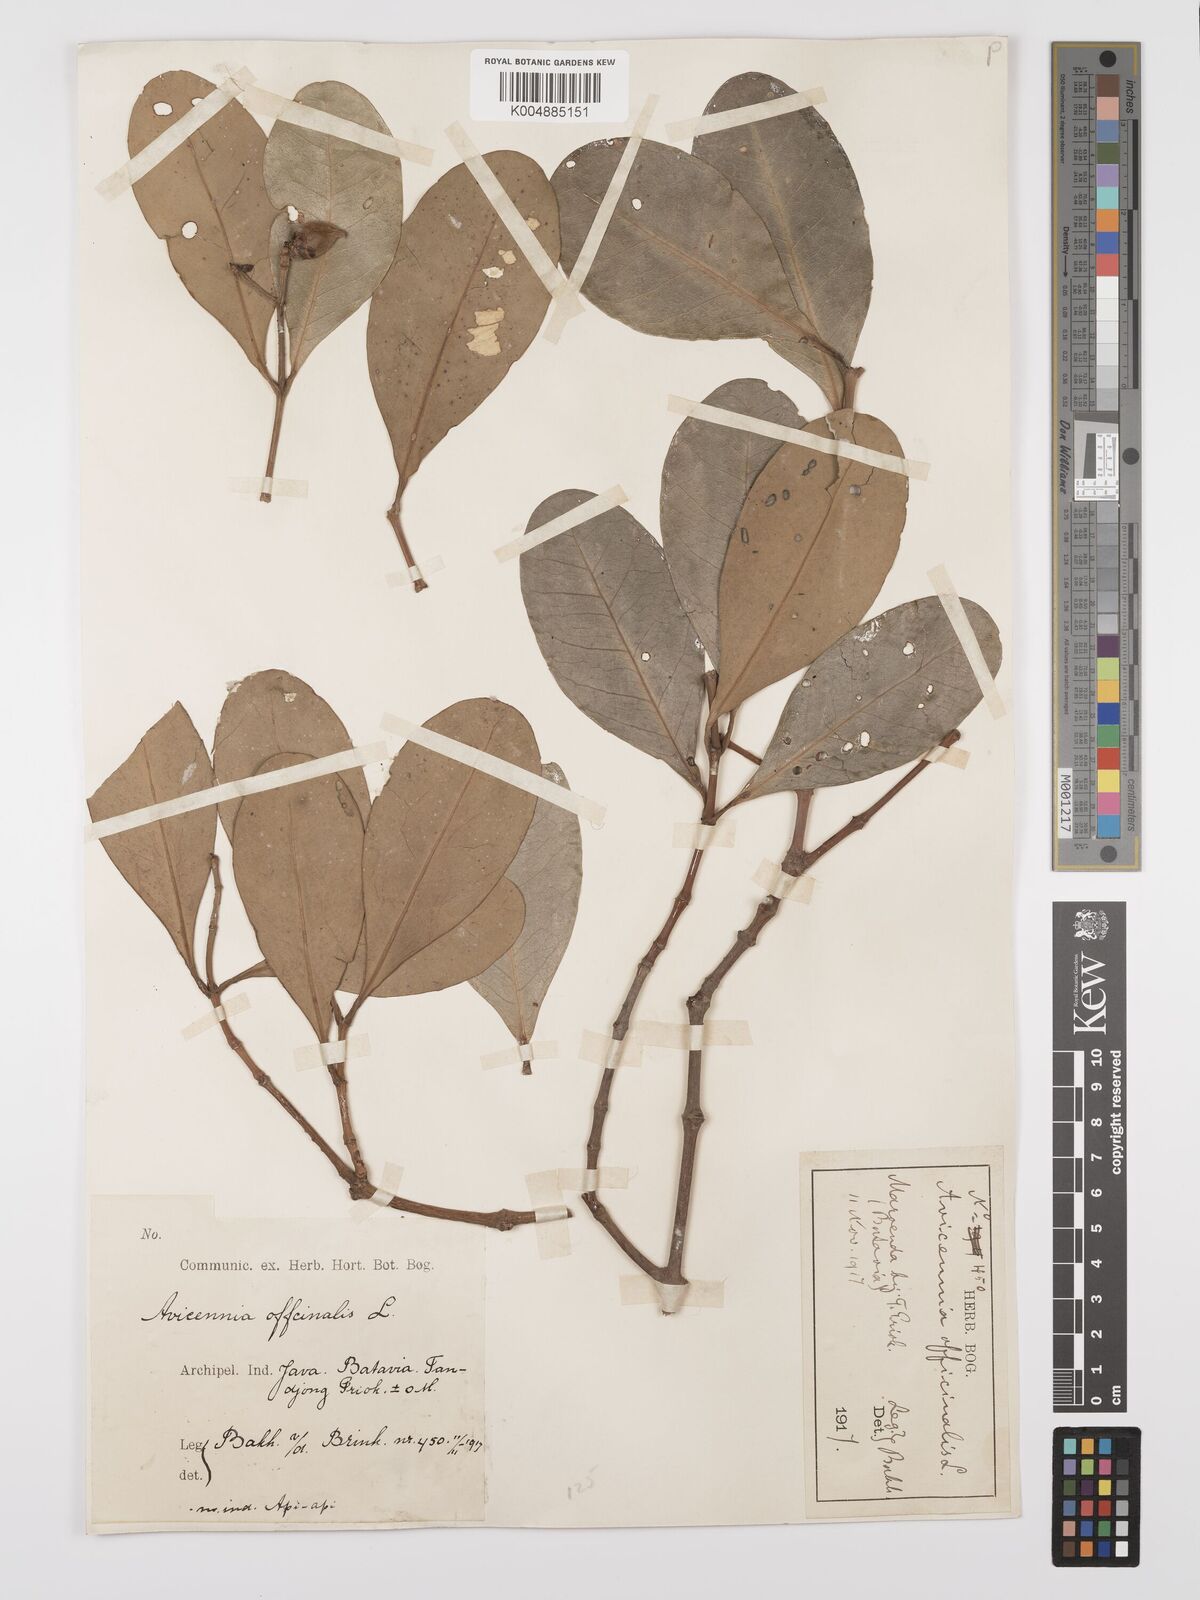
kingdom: Plantae
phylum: Tracheophyta
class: Magnoliopsida
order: Lamiales
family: Acanthaceae
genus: Avicennia
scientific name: Avicennia officinalis
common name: Baen
